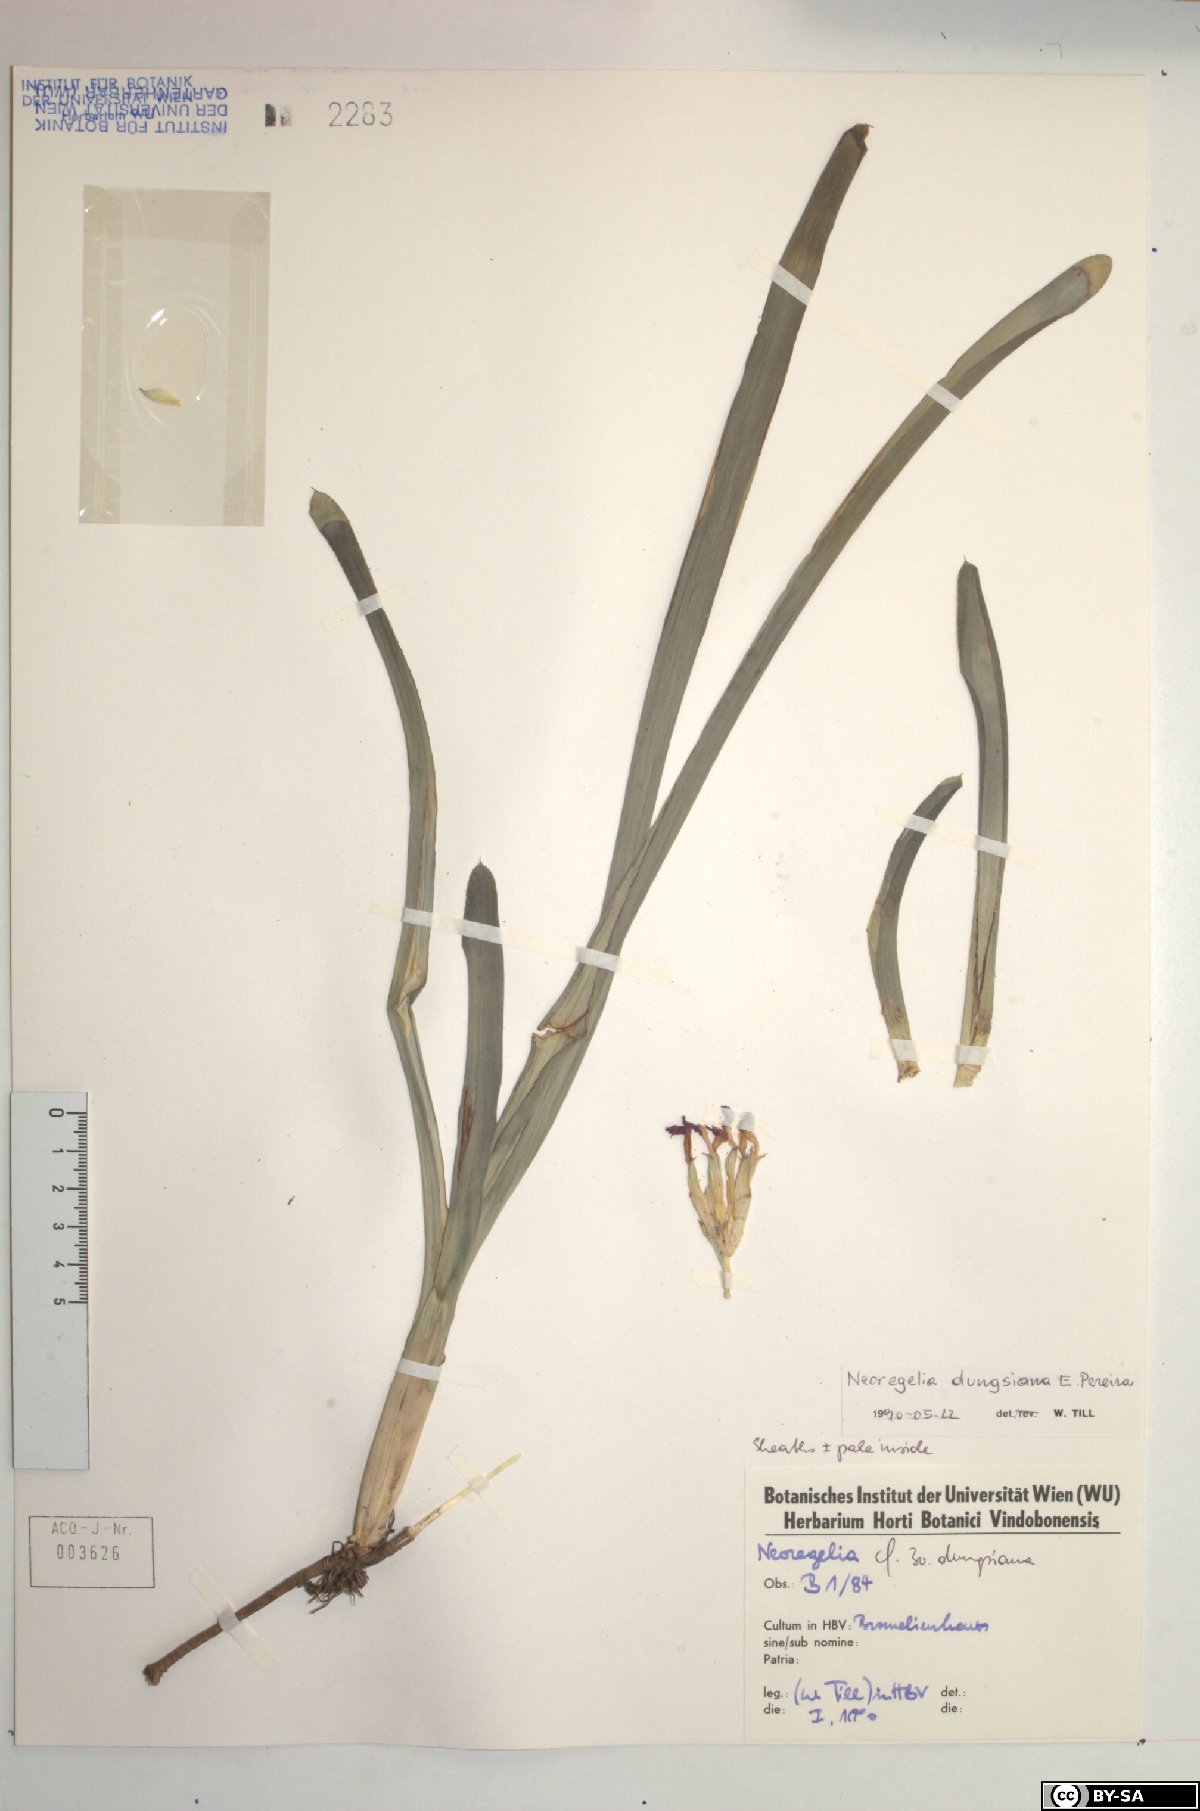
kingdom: Plantae
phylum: Tracheophyta
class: Liliopsida
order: Poales
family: Bromeliaceae
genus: Neoregelia
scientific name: Neoregelia dungsiana
